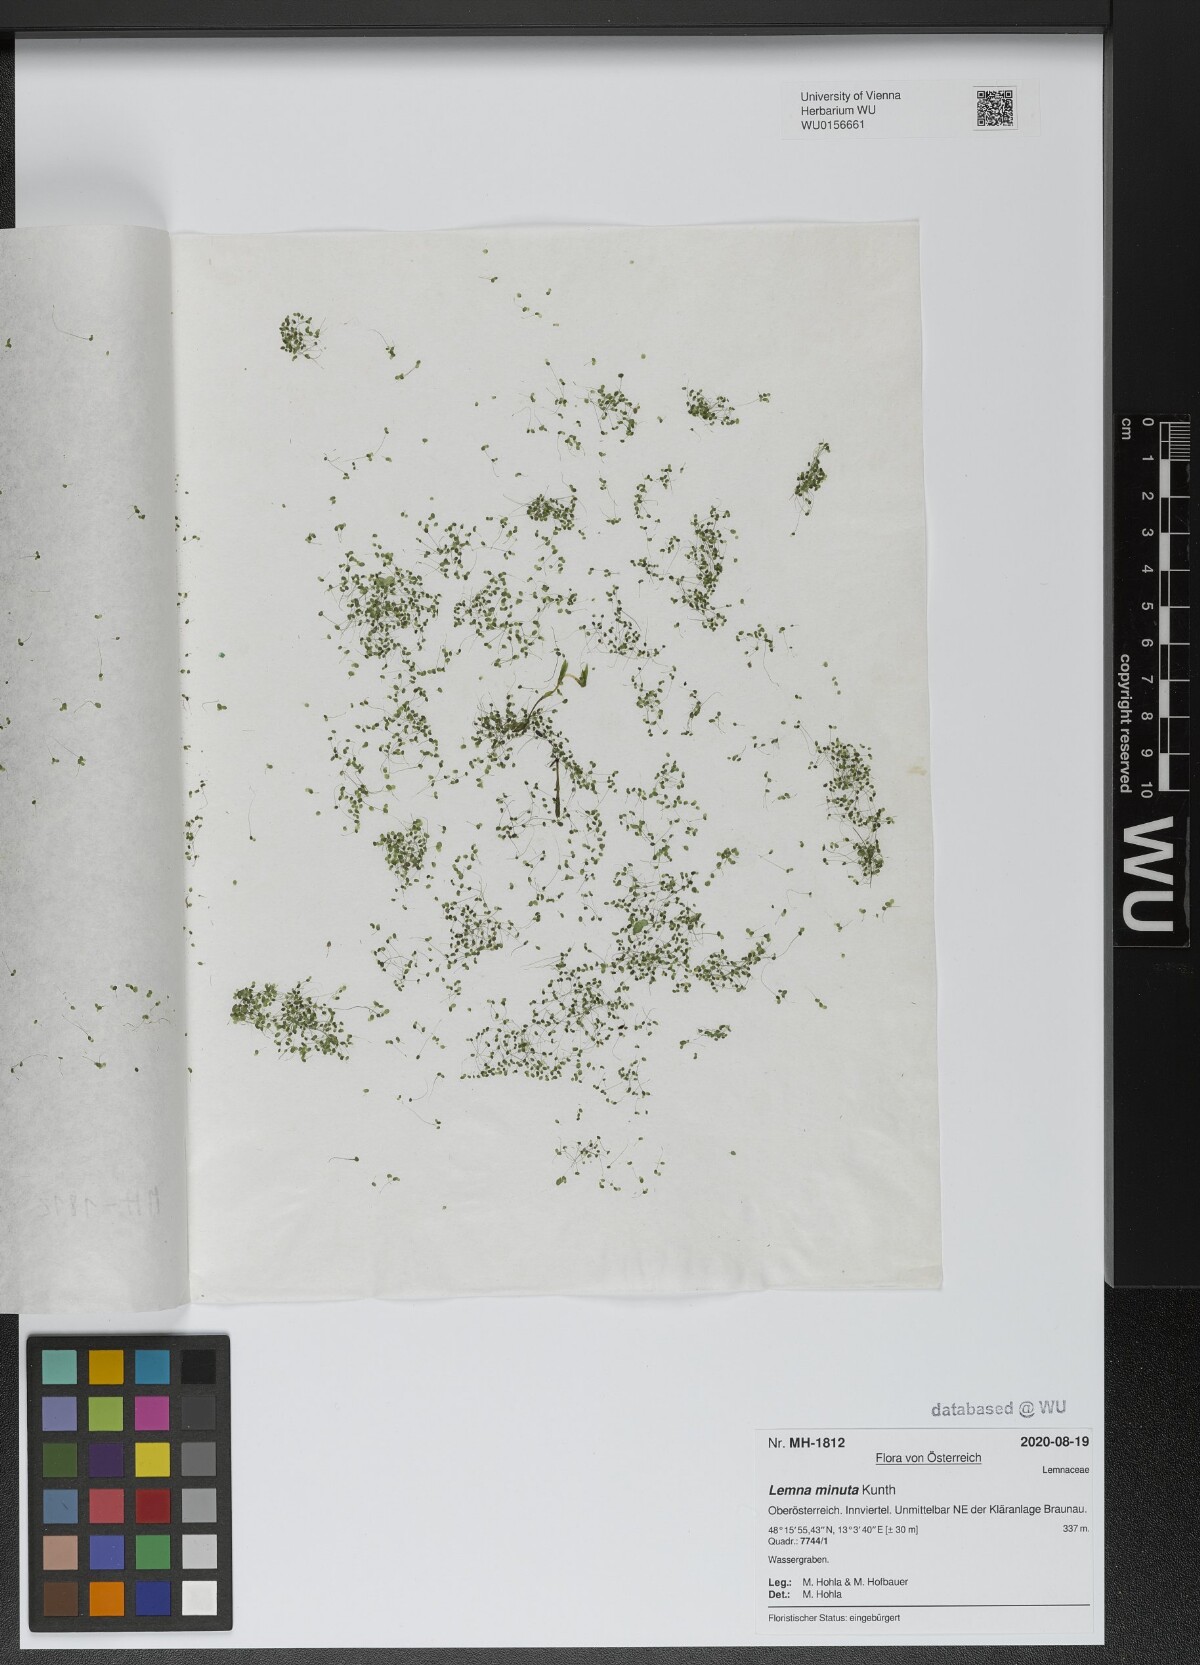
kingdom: Plantae
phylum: Tracheophyta
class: Liliopsida
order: Alismatales
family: Araceae
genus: Lemna
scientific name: Lemna minuta
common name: Least duckweed
